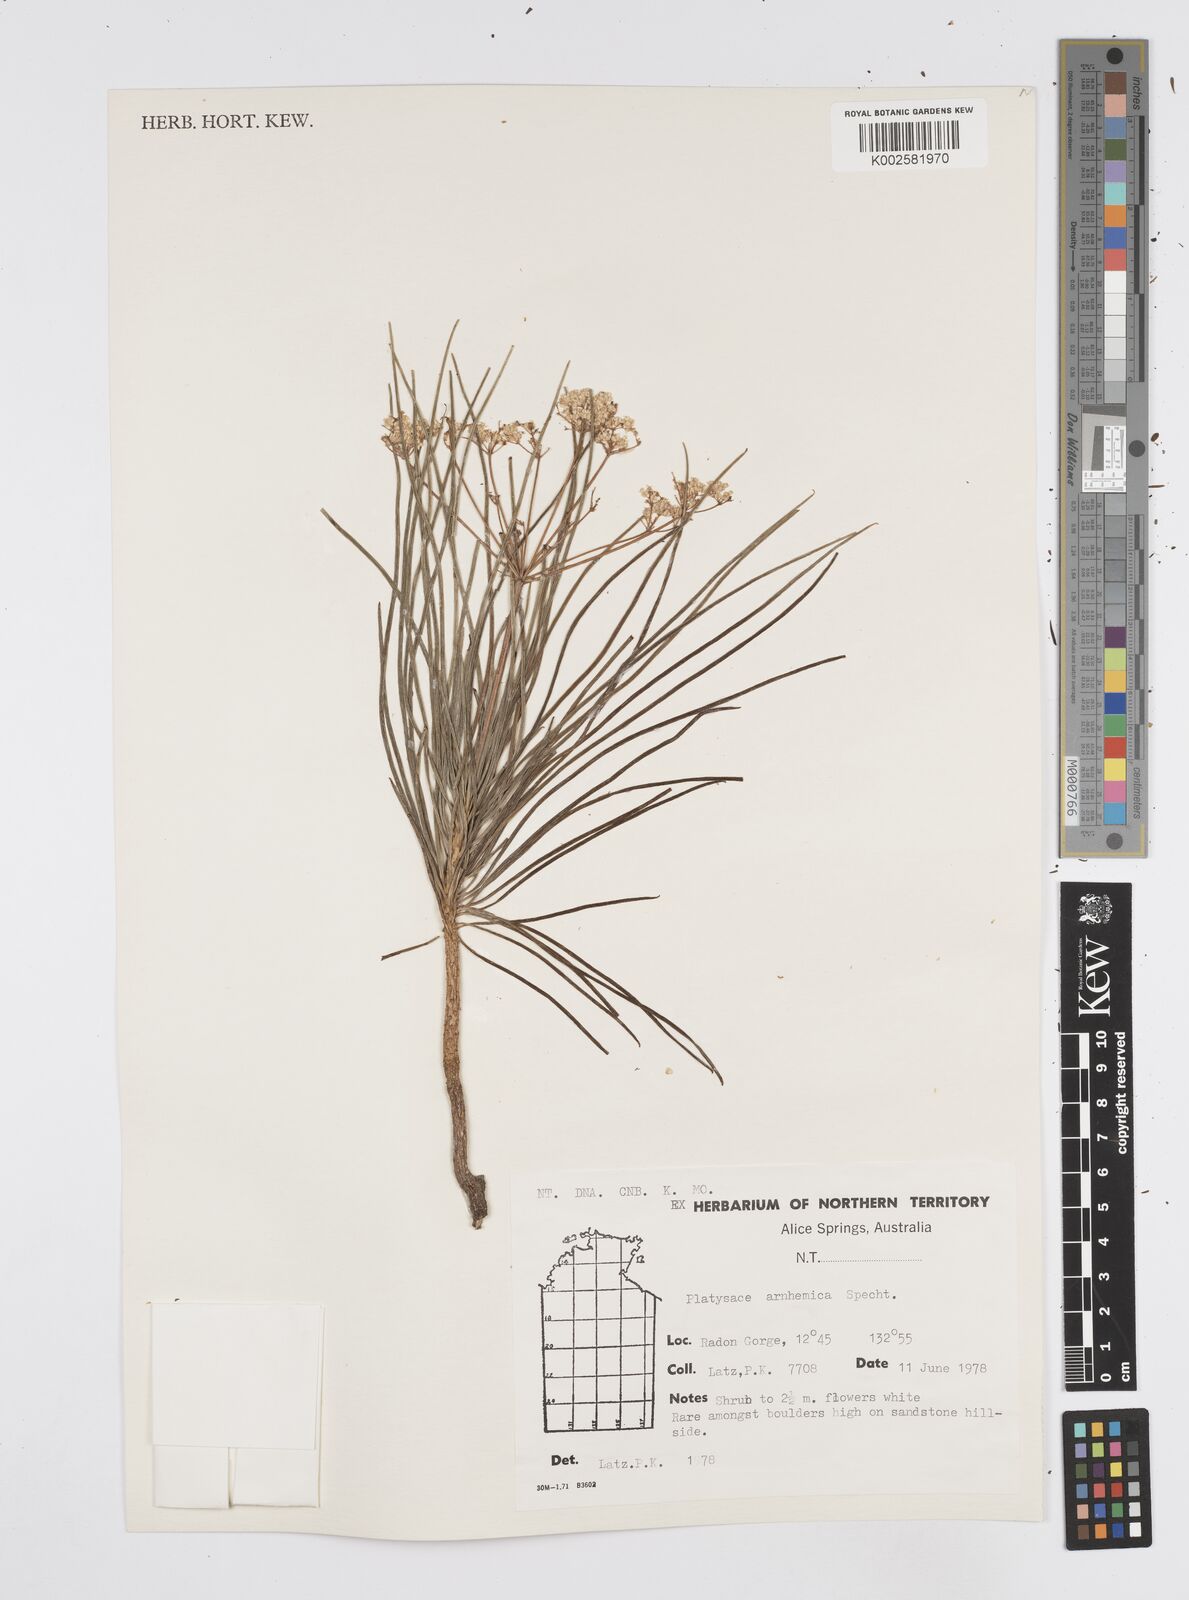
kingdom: Plantae
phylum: Tracheophyta
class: Magnoliopsida
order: Apiales
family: Apiaceae
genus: Platysace
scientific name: Platysace arnhemica
